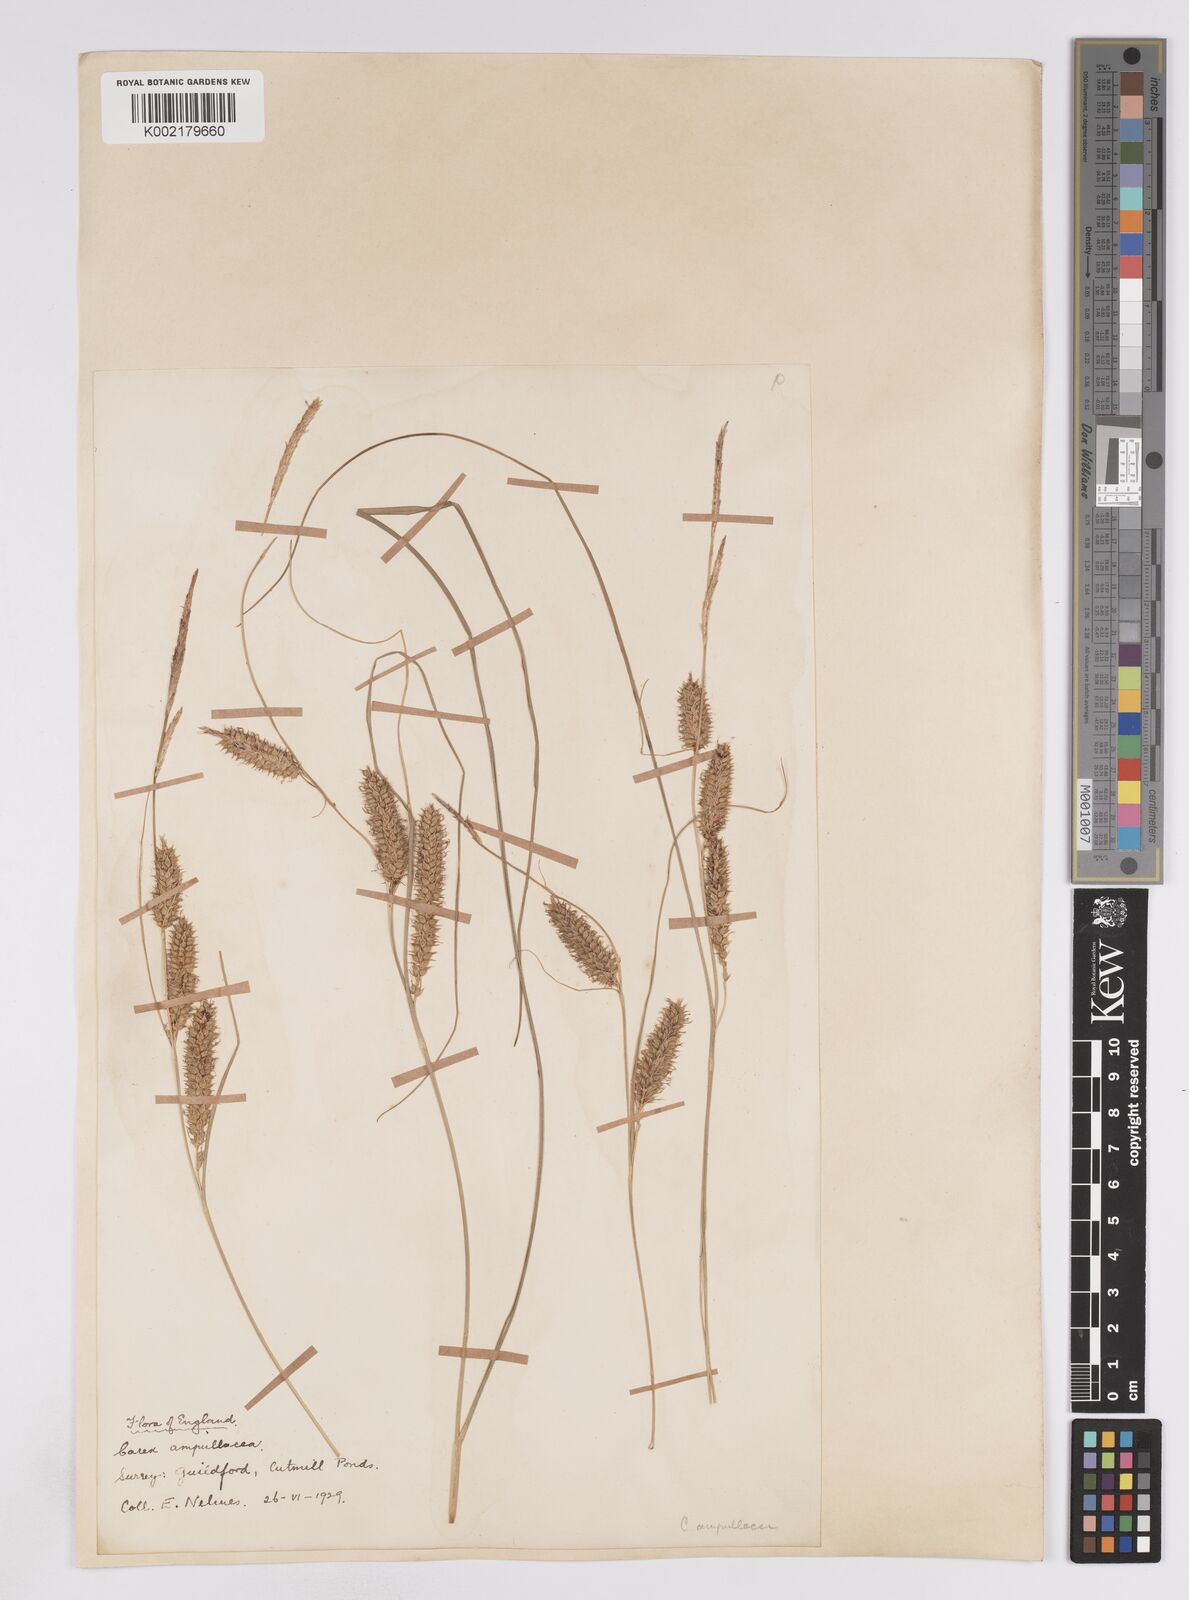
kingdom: Plantae
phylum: Tracheophyta
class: Liliopsida
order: Poales
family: Cyperaceae
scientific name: Cyperaceae
